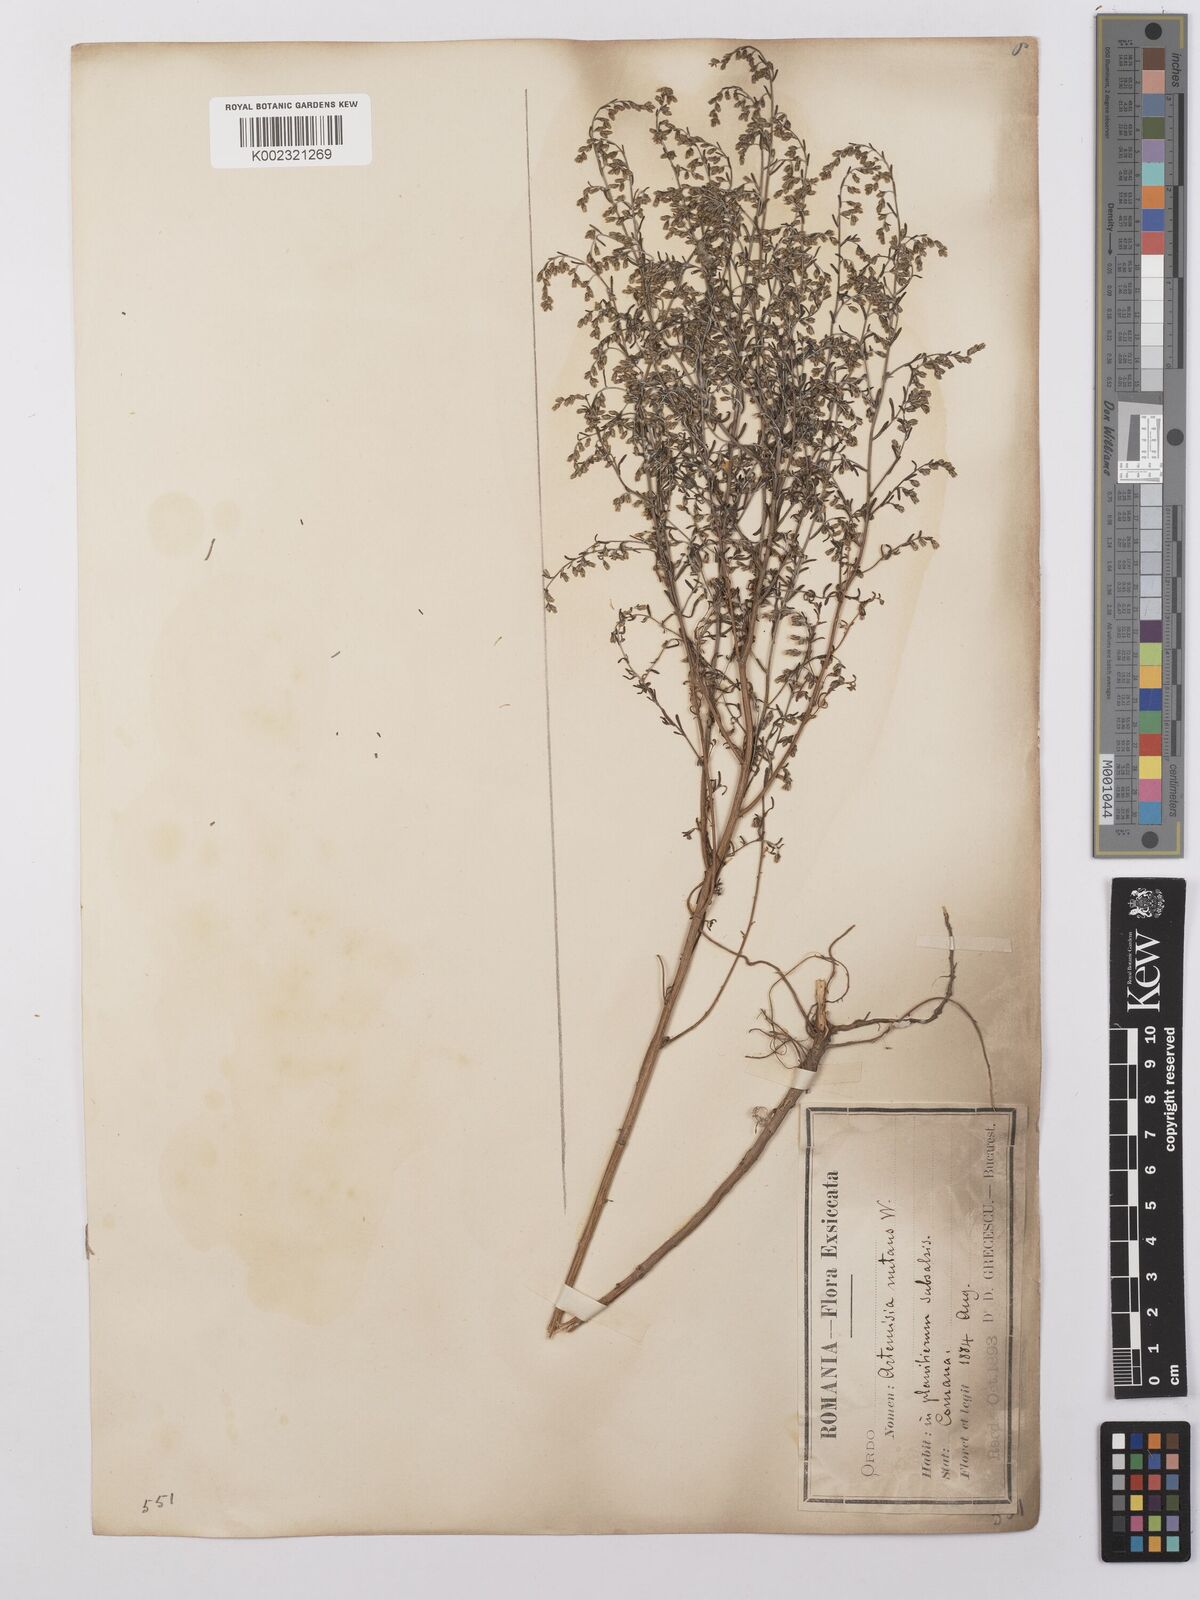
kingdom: Plantae
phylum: Tracheophyta
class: Magnoliopsida
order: Asterales
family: Asteraceae
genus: Artemisia
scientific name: Artemisia nutans
